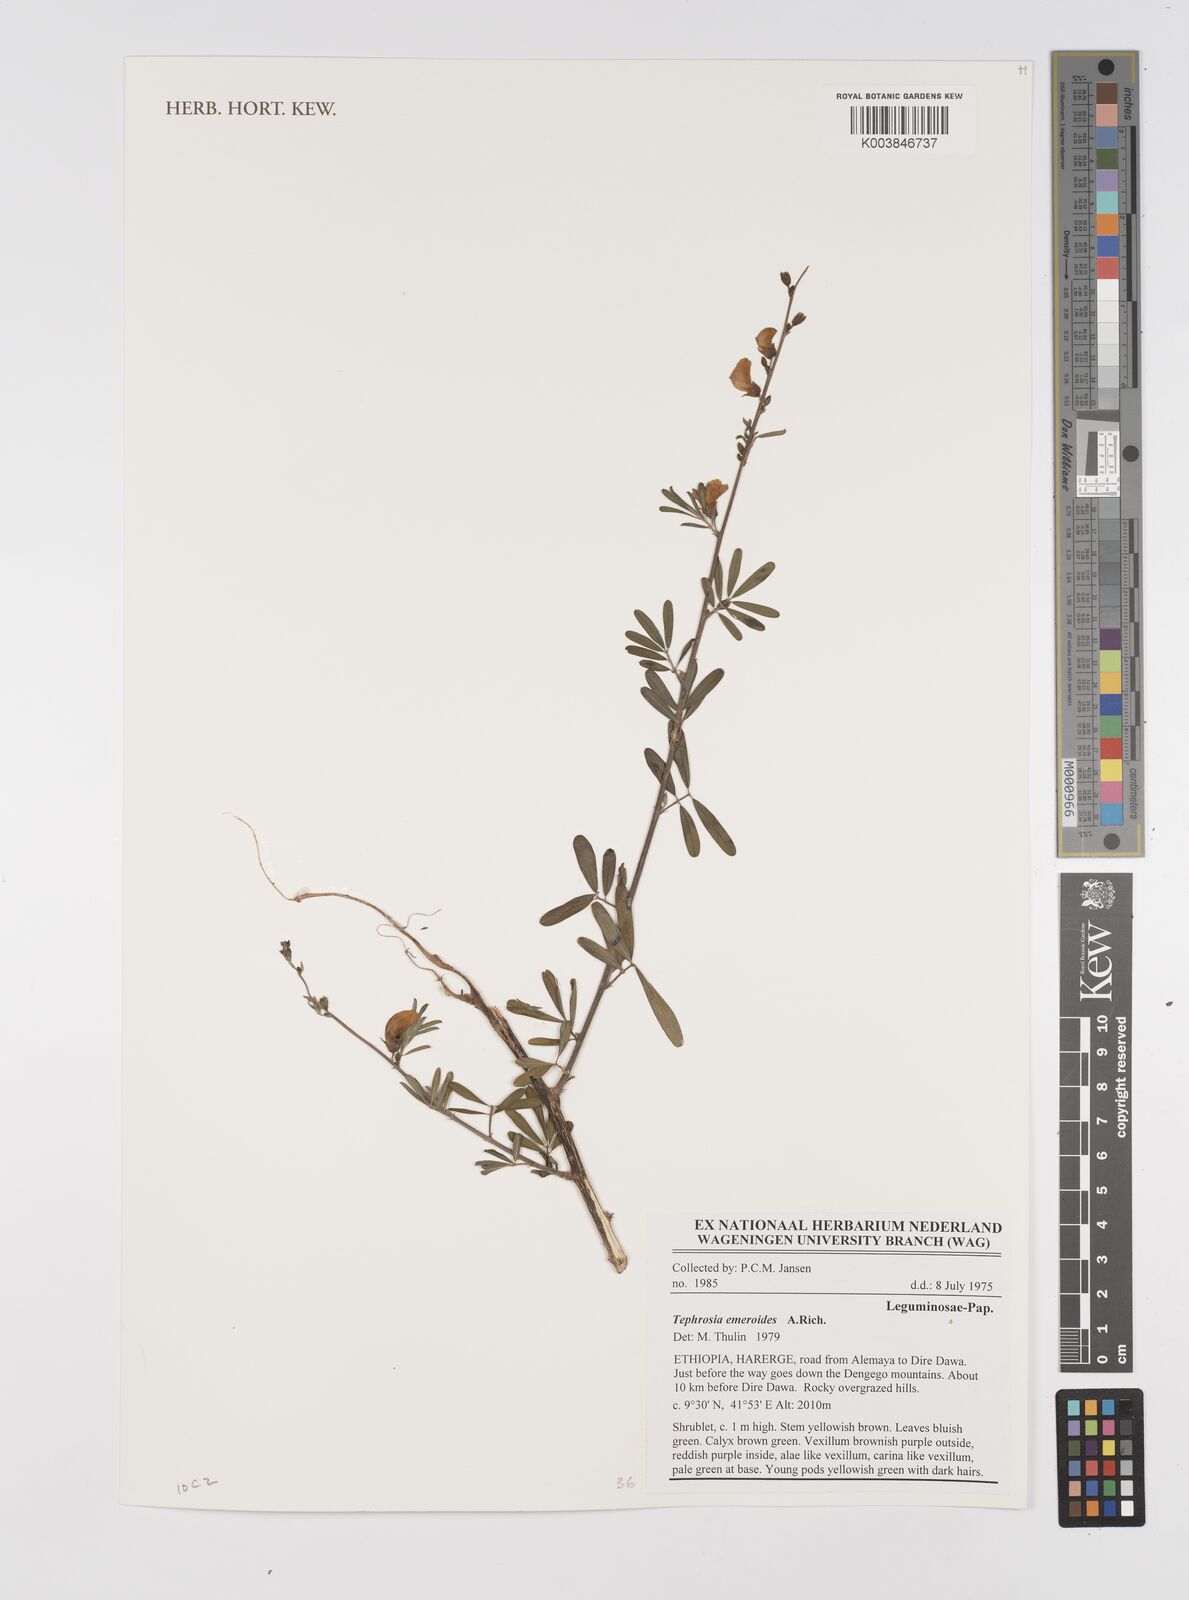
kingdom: Plantae
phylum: Tracheophyta
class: Magnoliopsida
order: Fabales
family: Fabaceae
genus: Tephrosia
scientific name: Tephrosia emeroides
